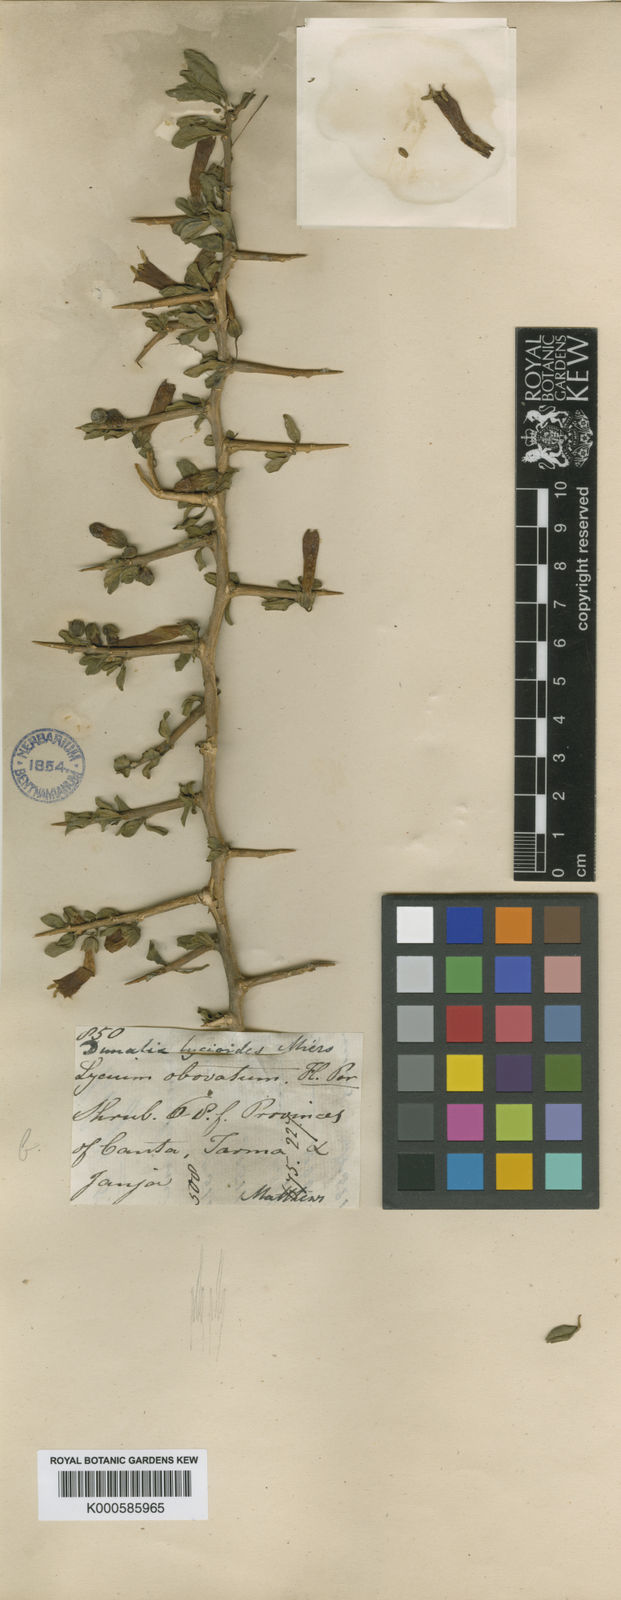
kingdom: Plantae
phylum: Tracheophyta
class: Magnoliopsida
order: Solanales
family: Solanaceae
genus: Dunalia
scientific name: Dunalia spinosa
